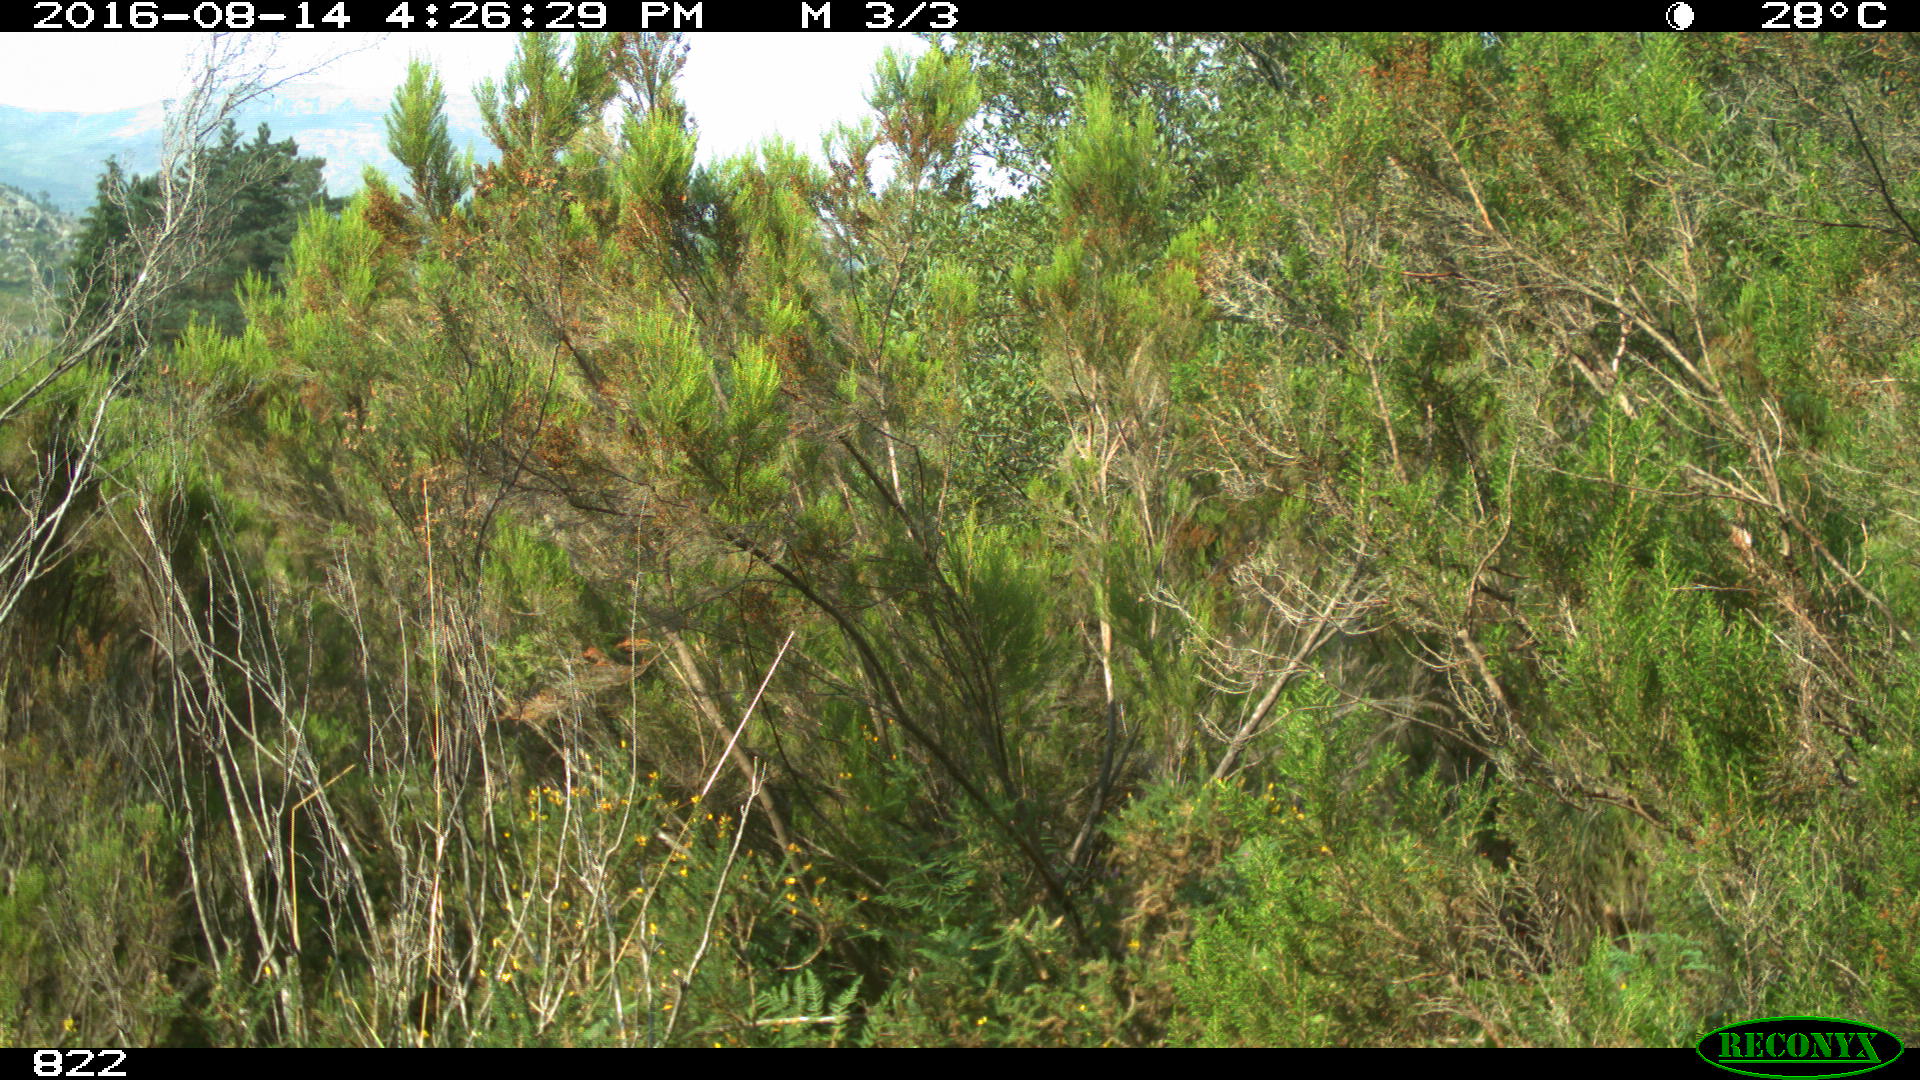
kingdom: Animalia
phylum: Chordata
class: Mammalia
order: Artiodactyla
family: Bovidae
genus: Bos
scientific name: Bos taurus
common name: Domesticated cattle
